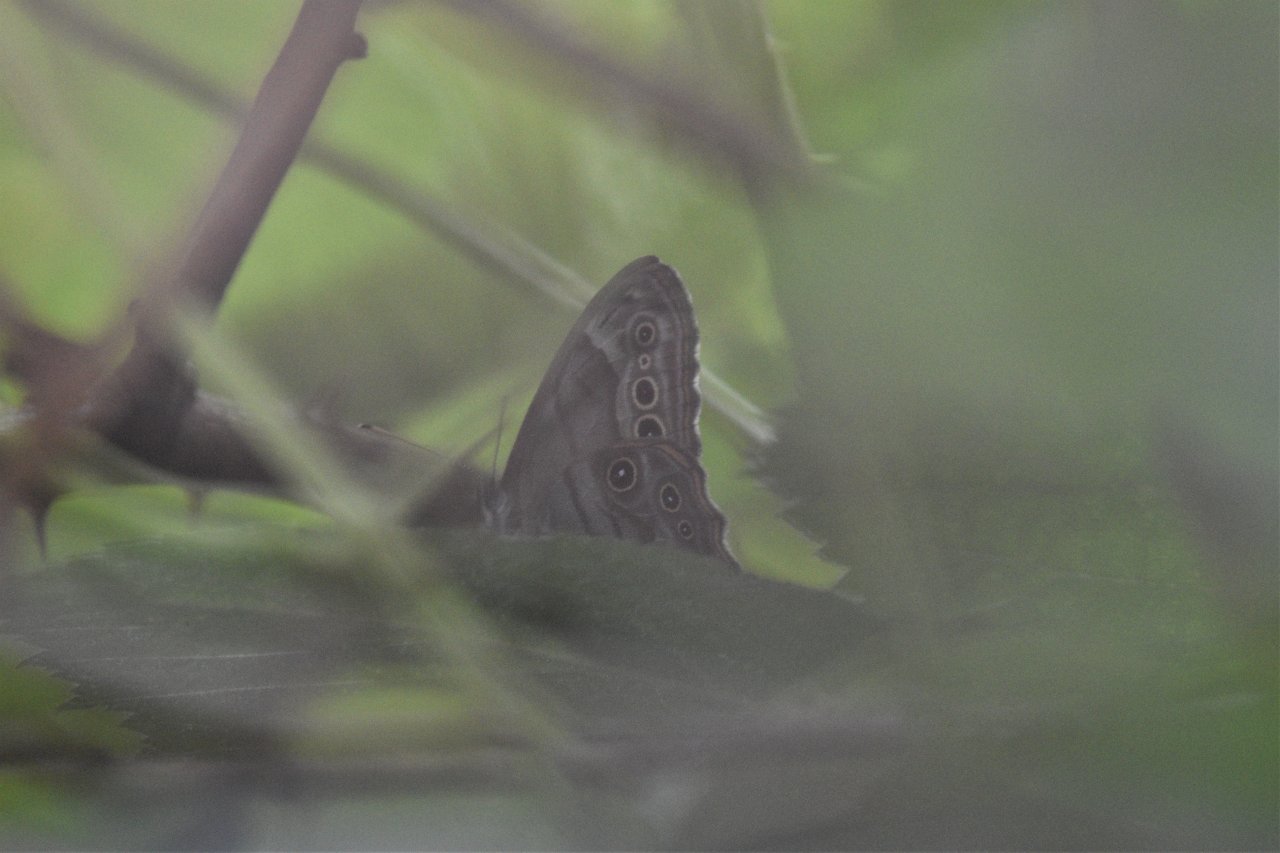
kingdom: Animalia
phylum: Arthropoda
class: Insecta
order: Lepidoptera
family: Nymphalidae
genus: Lethe
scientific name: Lethe anthedon
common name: Northern Pearly-Eye
